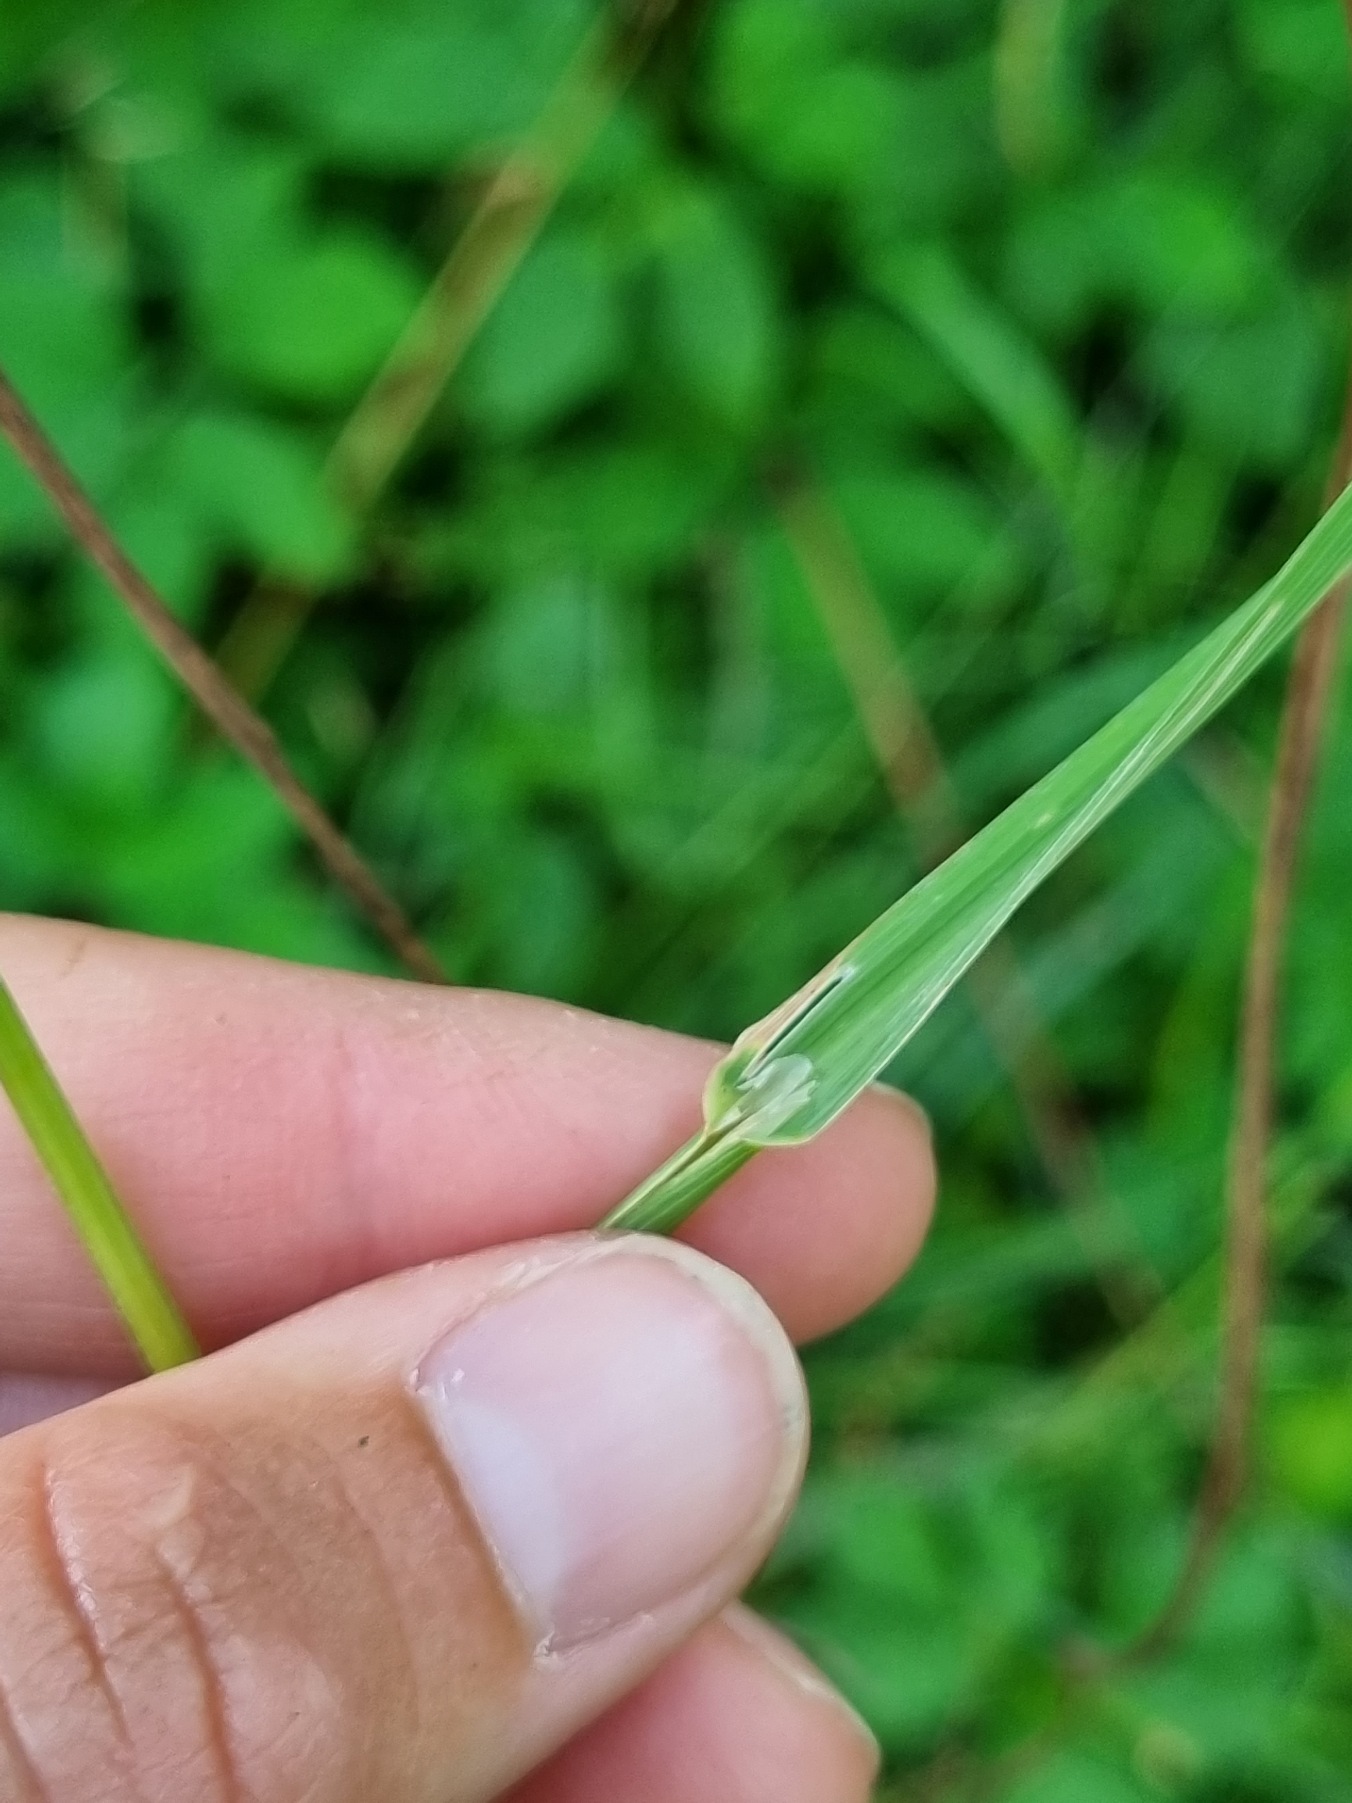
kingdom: Plantae
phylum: Tracheophyta
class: Liliopsida
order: Poales
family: Poaceae
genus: Phleum
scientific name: Phleum pratense
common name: Eng-rottehale
